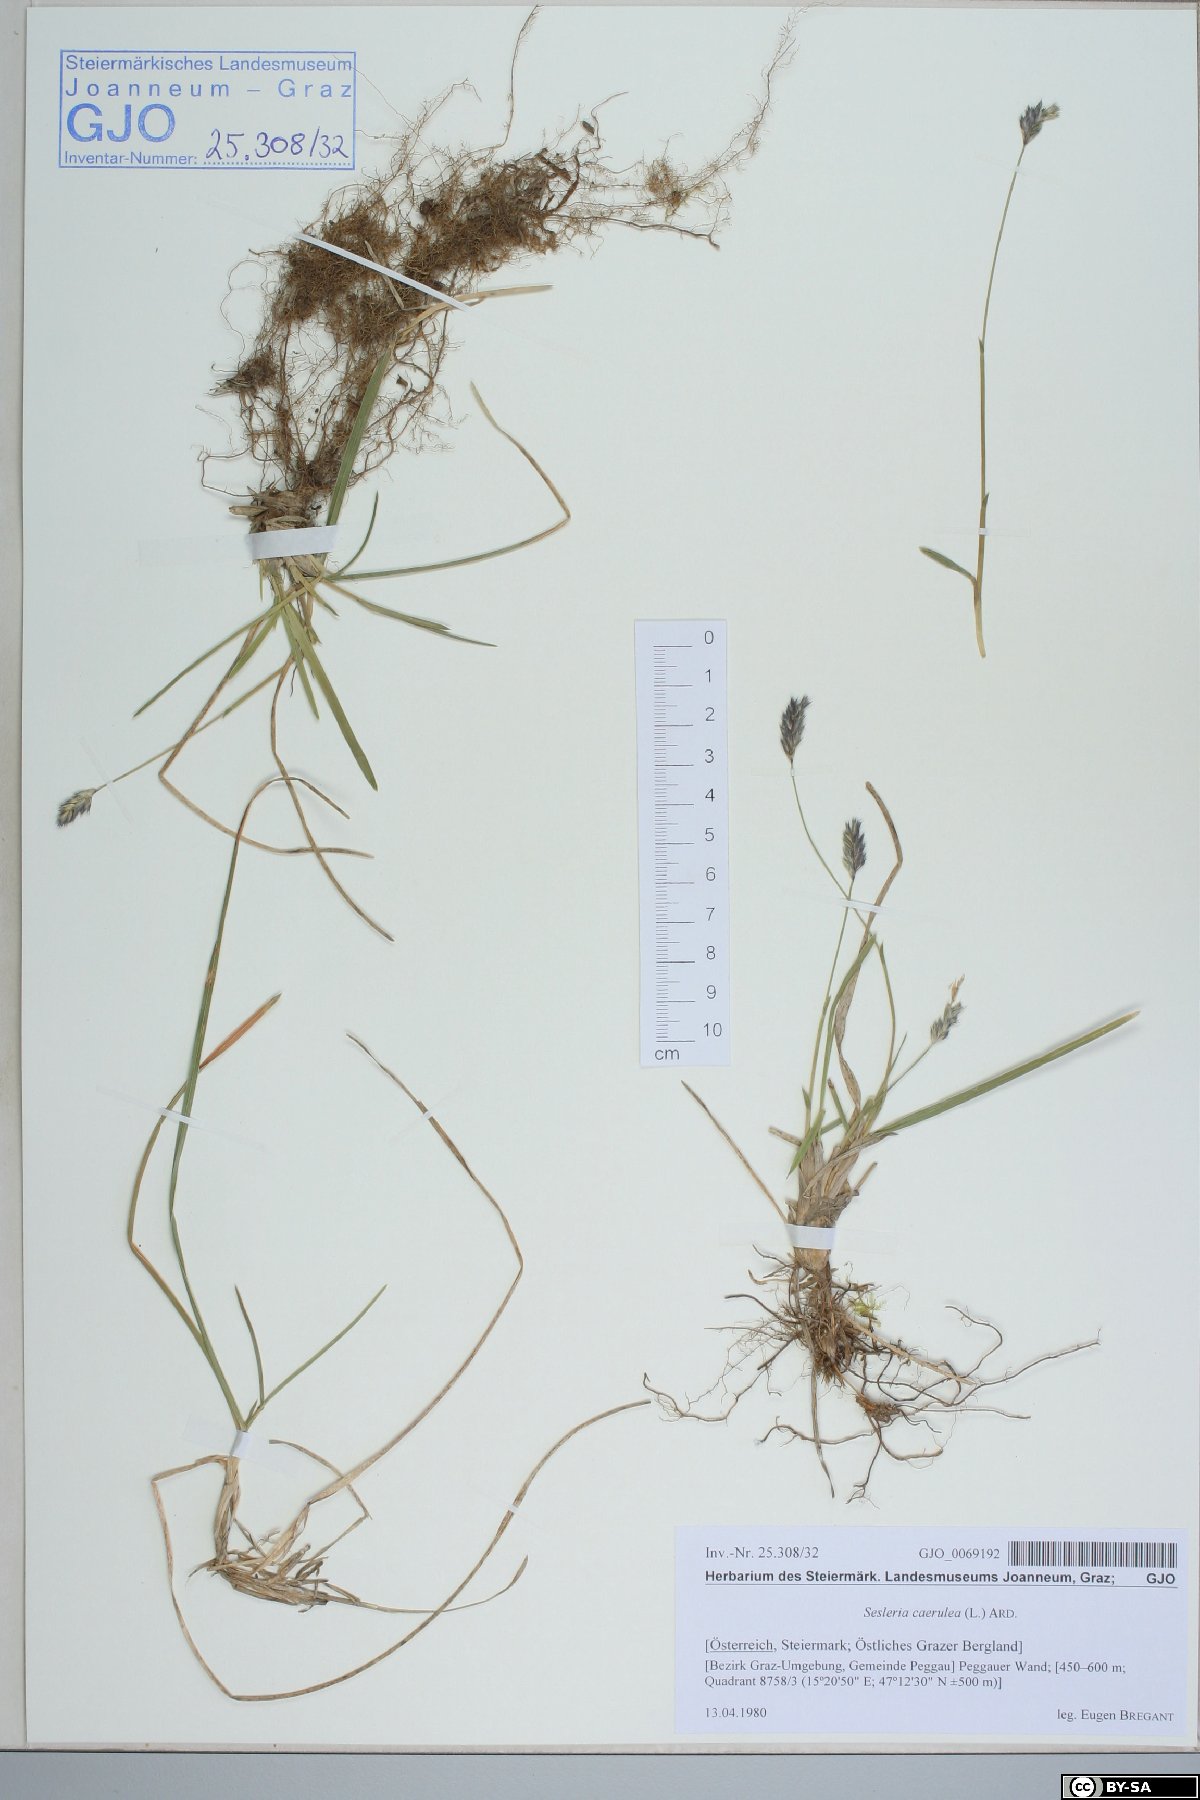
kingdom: Plantae
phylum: Tracheophyta
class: Liliopsida
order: Poales
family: Poaceae
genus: Sesleria
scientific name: Sesleria caerulea
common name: Blue moor-grass
